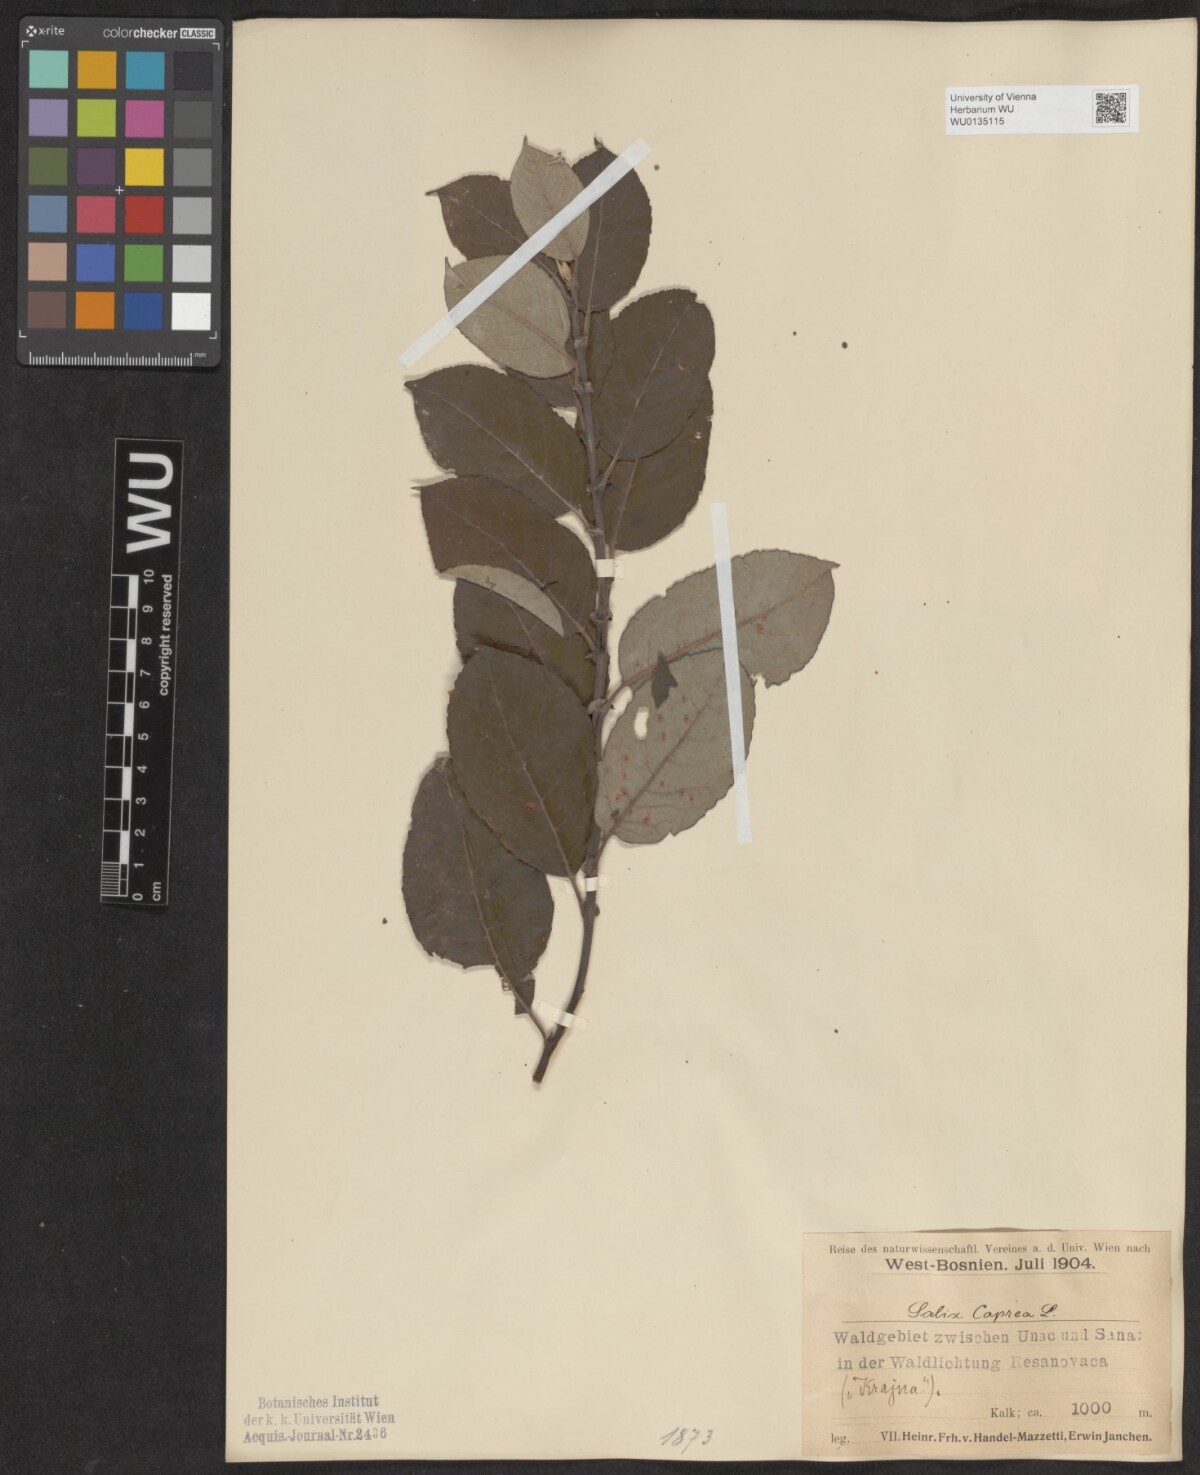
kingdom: Plantae
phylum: Tracheophyta
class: Magnoliopsida
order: Malpighiales
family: Salicaceae
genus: Salix
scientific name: Salix caprea
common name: Goat willow
